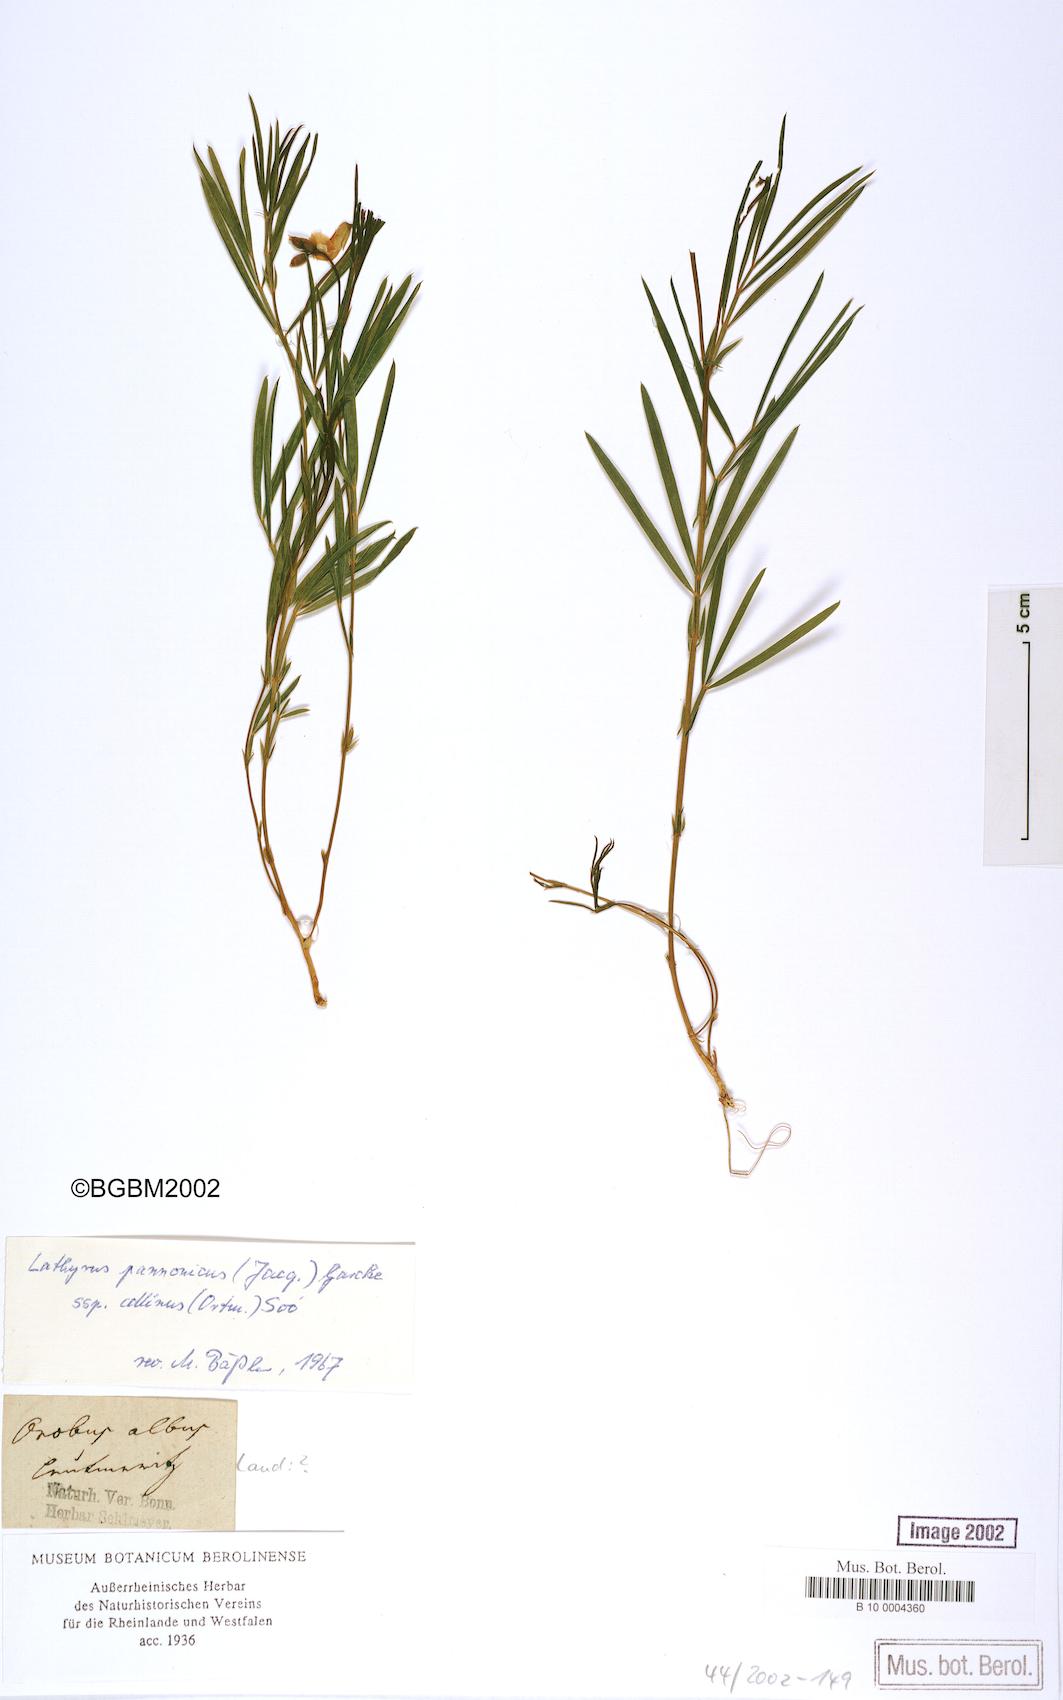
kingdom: Plantae
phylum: Tracheophyta
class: Magnoliopsida
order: Fabales
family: Fabaceae
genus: Lathyrus
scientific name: Lathyrus pannonicus
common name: Pea
